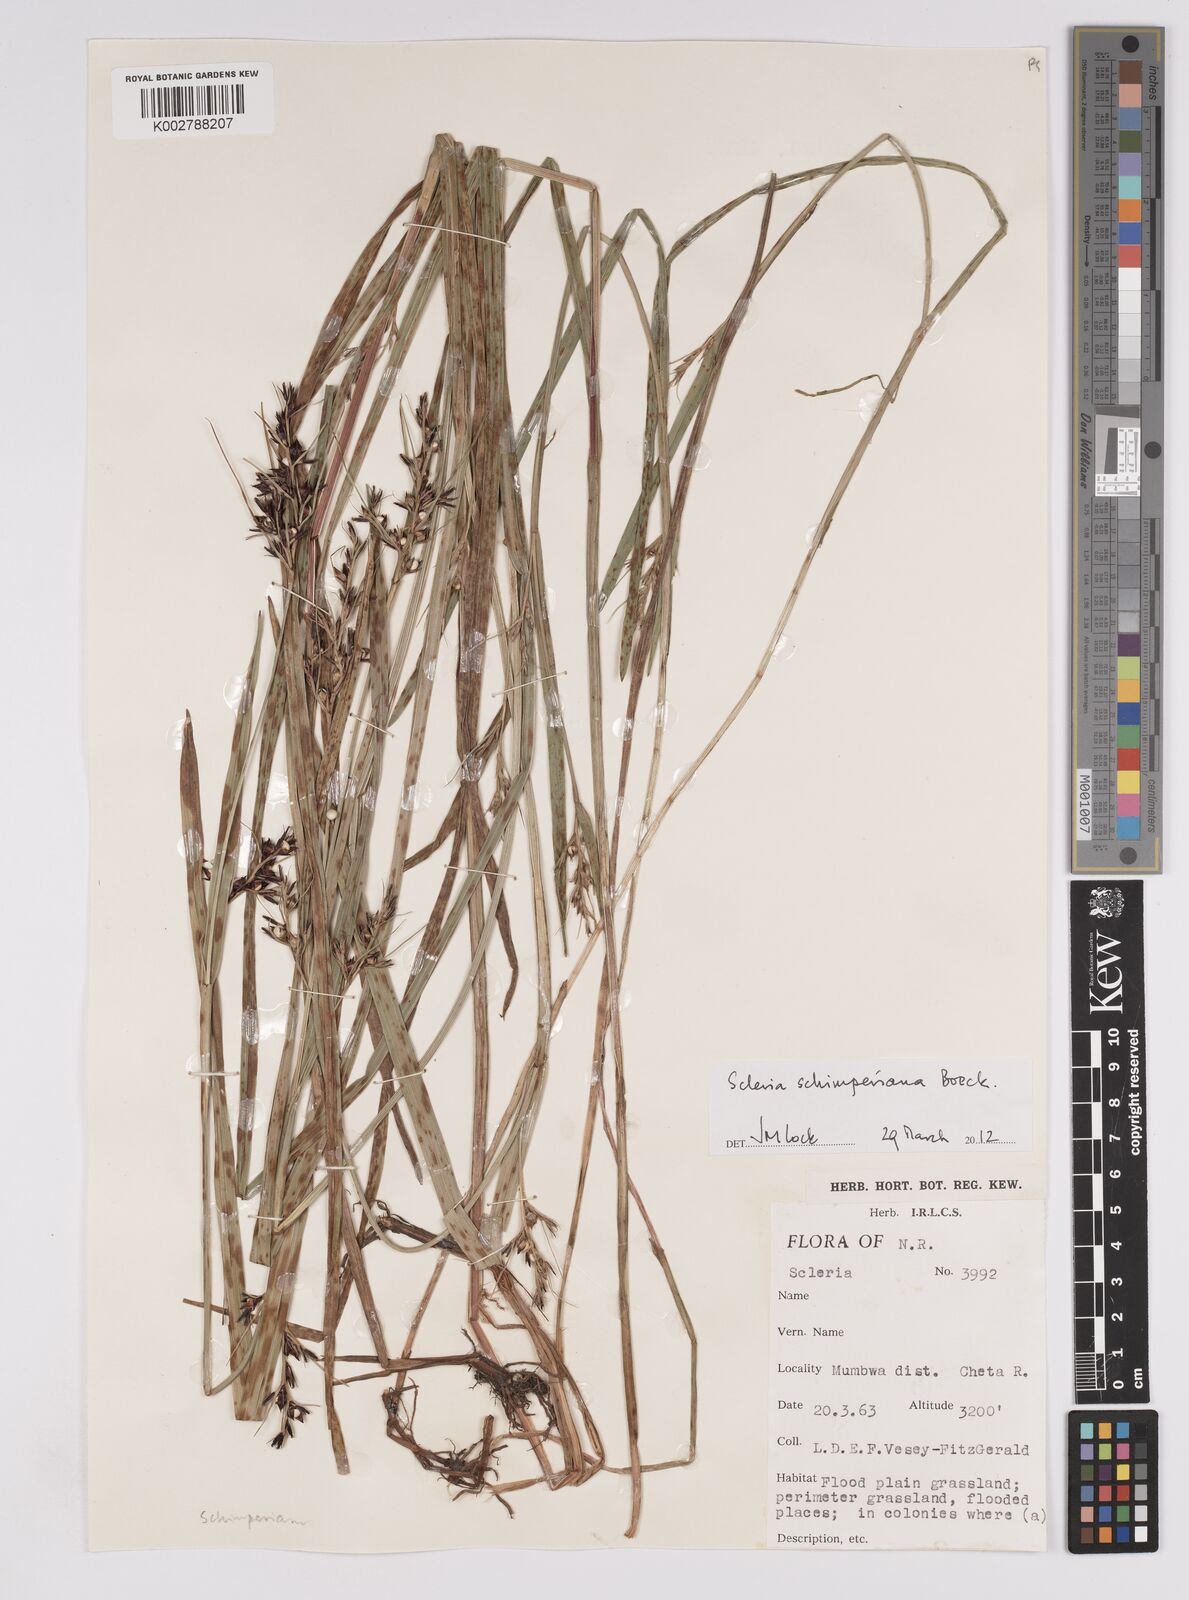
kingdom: Plantae
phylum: Tracheophyta
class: Liliopsida
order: Poales
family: Cyperaceae
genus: Scleria
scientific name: Scleria schimperiana
